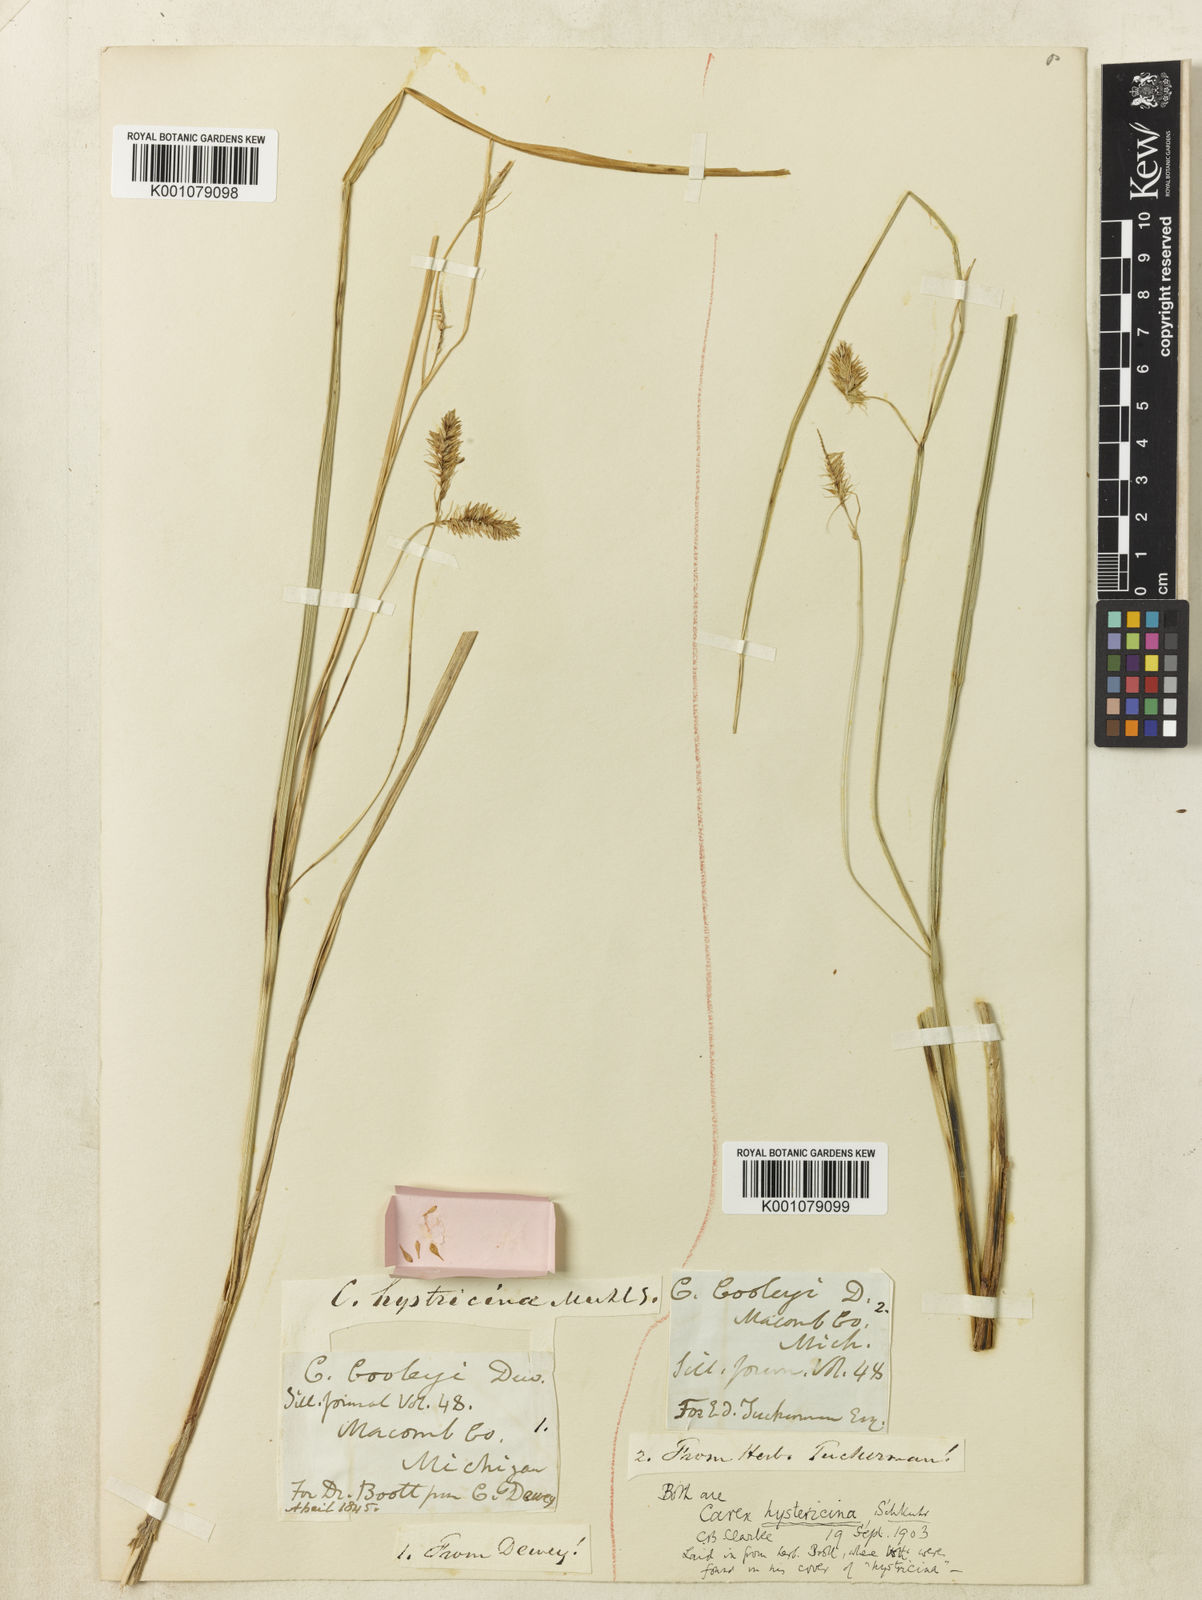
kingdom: Plantae
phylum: Tracheophyta
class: Liliopsida
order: Poales
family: Cyperaceae
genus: Carex
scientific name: Carex
